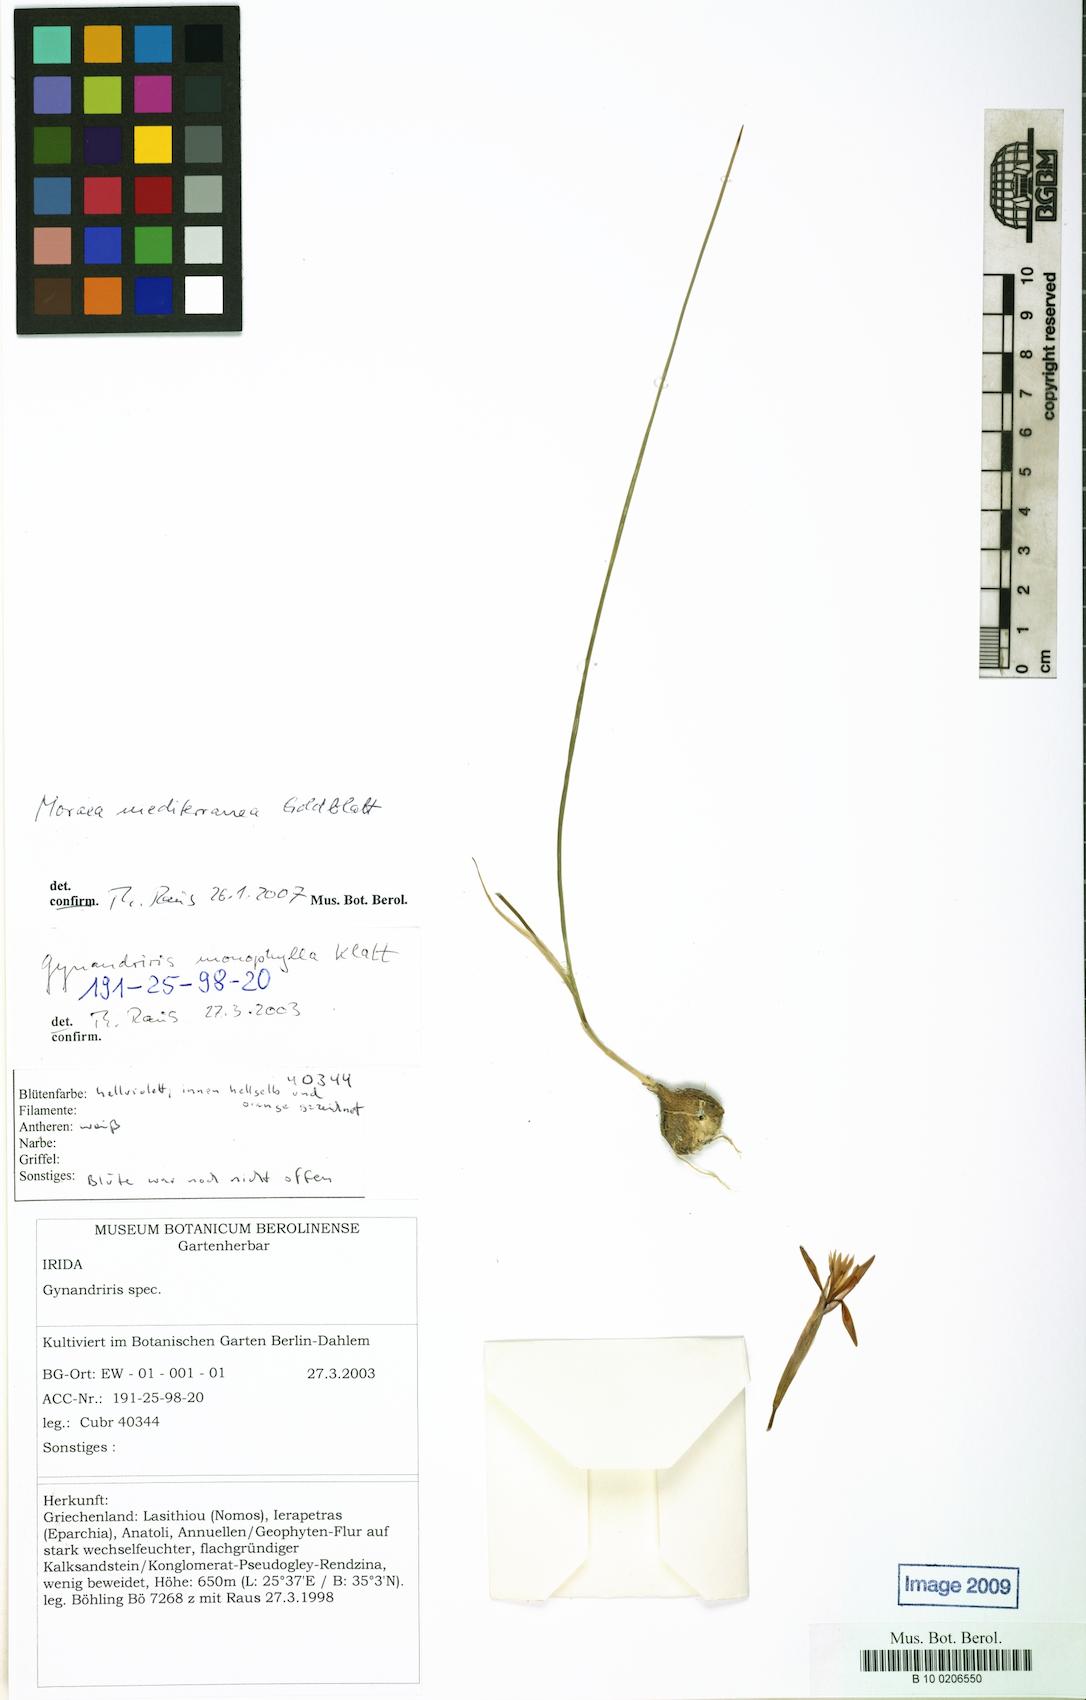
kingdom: Plantae
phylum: Tracheophyta
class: Liliopsida
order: Asparagales
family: Iridaceae
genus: Moraea
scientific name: Moraea mediterranea
